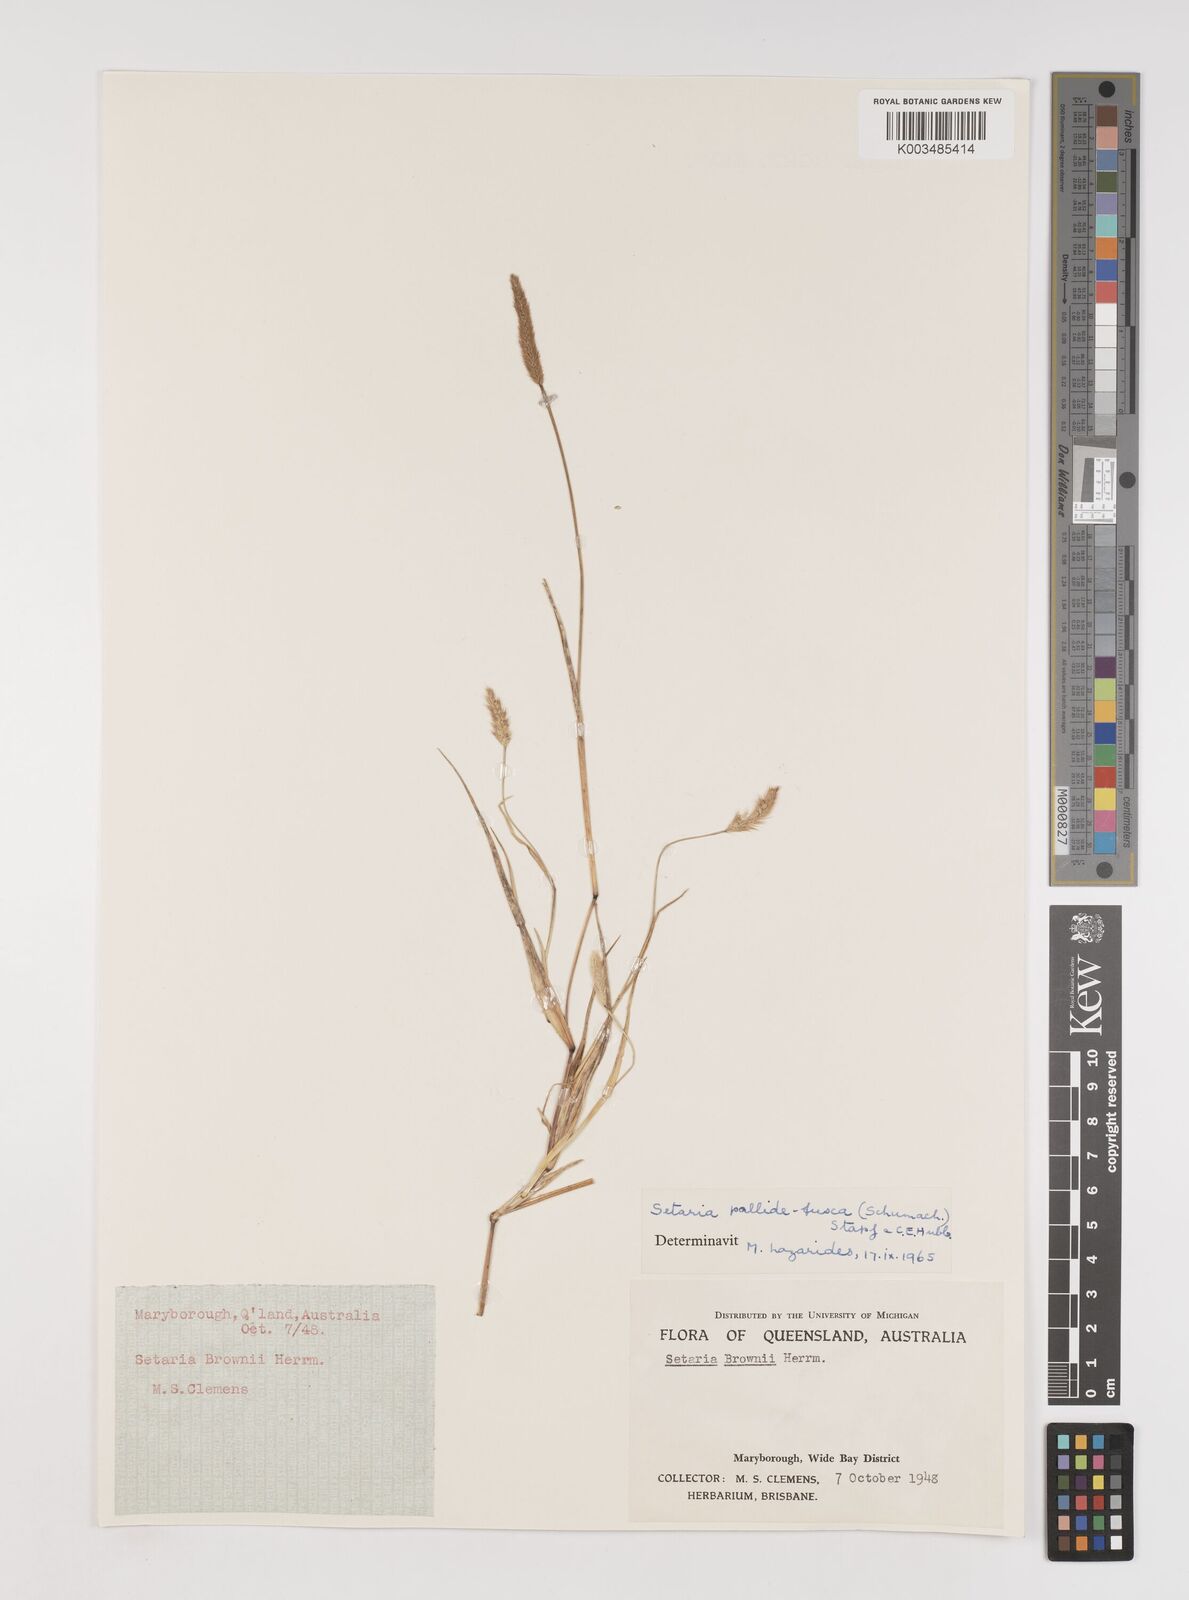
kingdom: Plantae
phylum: Tracheophyta
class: Liliopsida
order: Poales
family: Poaceae
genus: Setaria
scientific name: Setaria pumila
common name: Yellow bristle-grass
